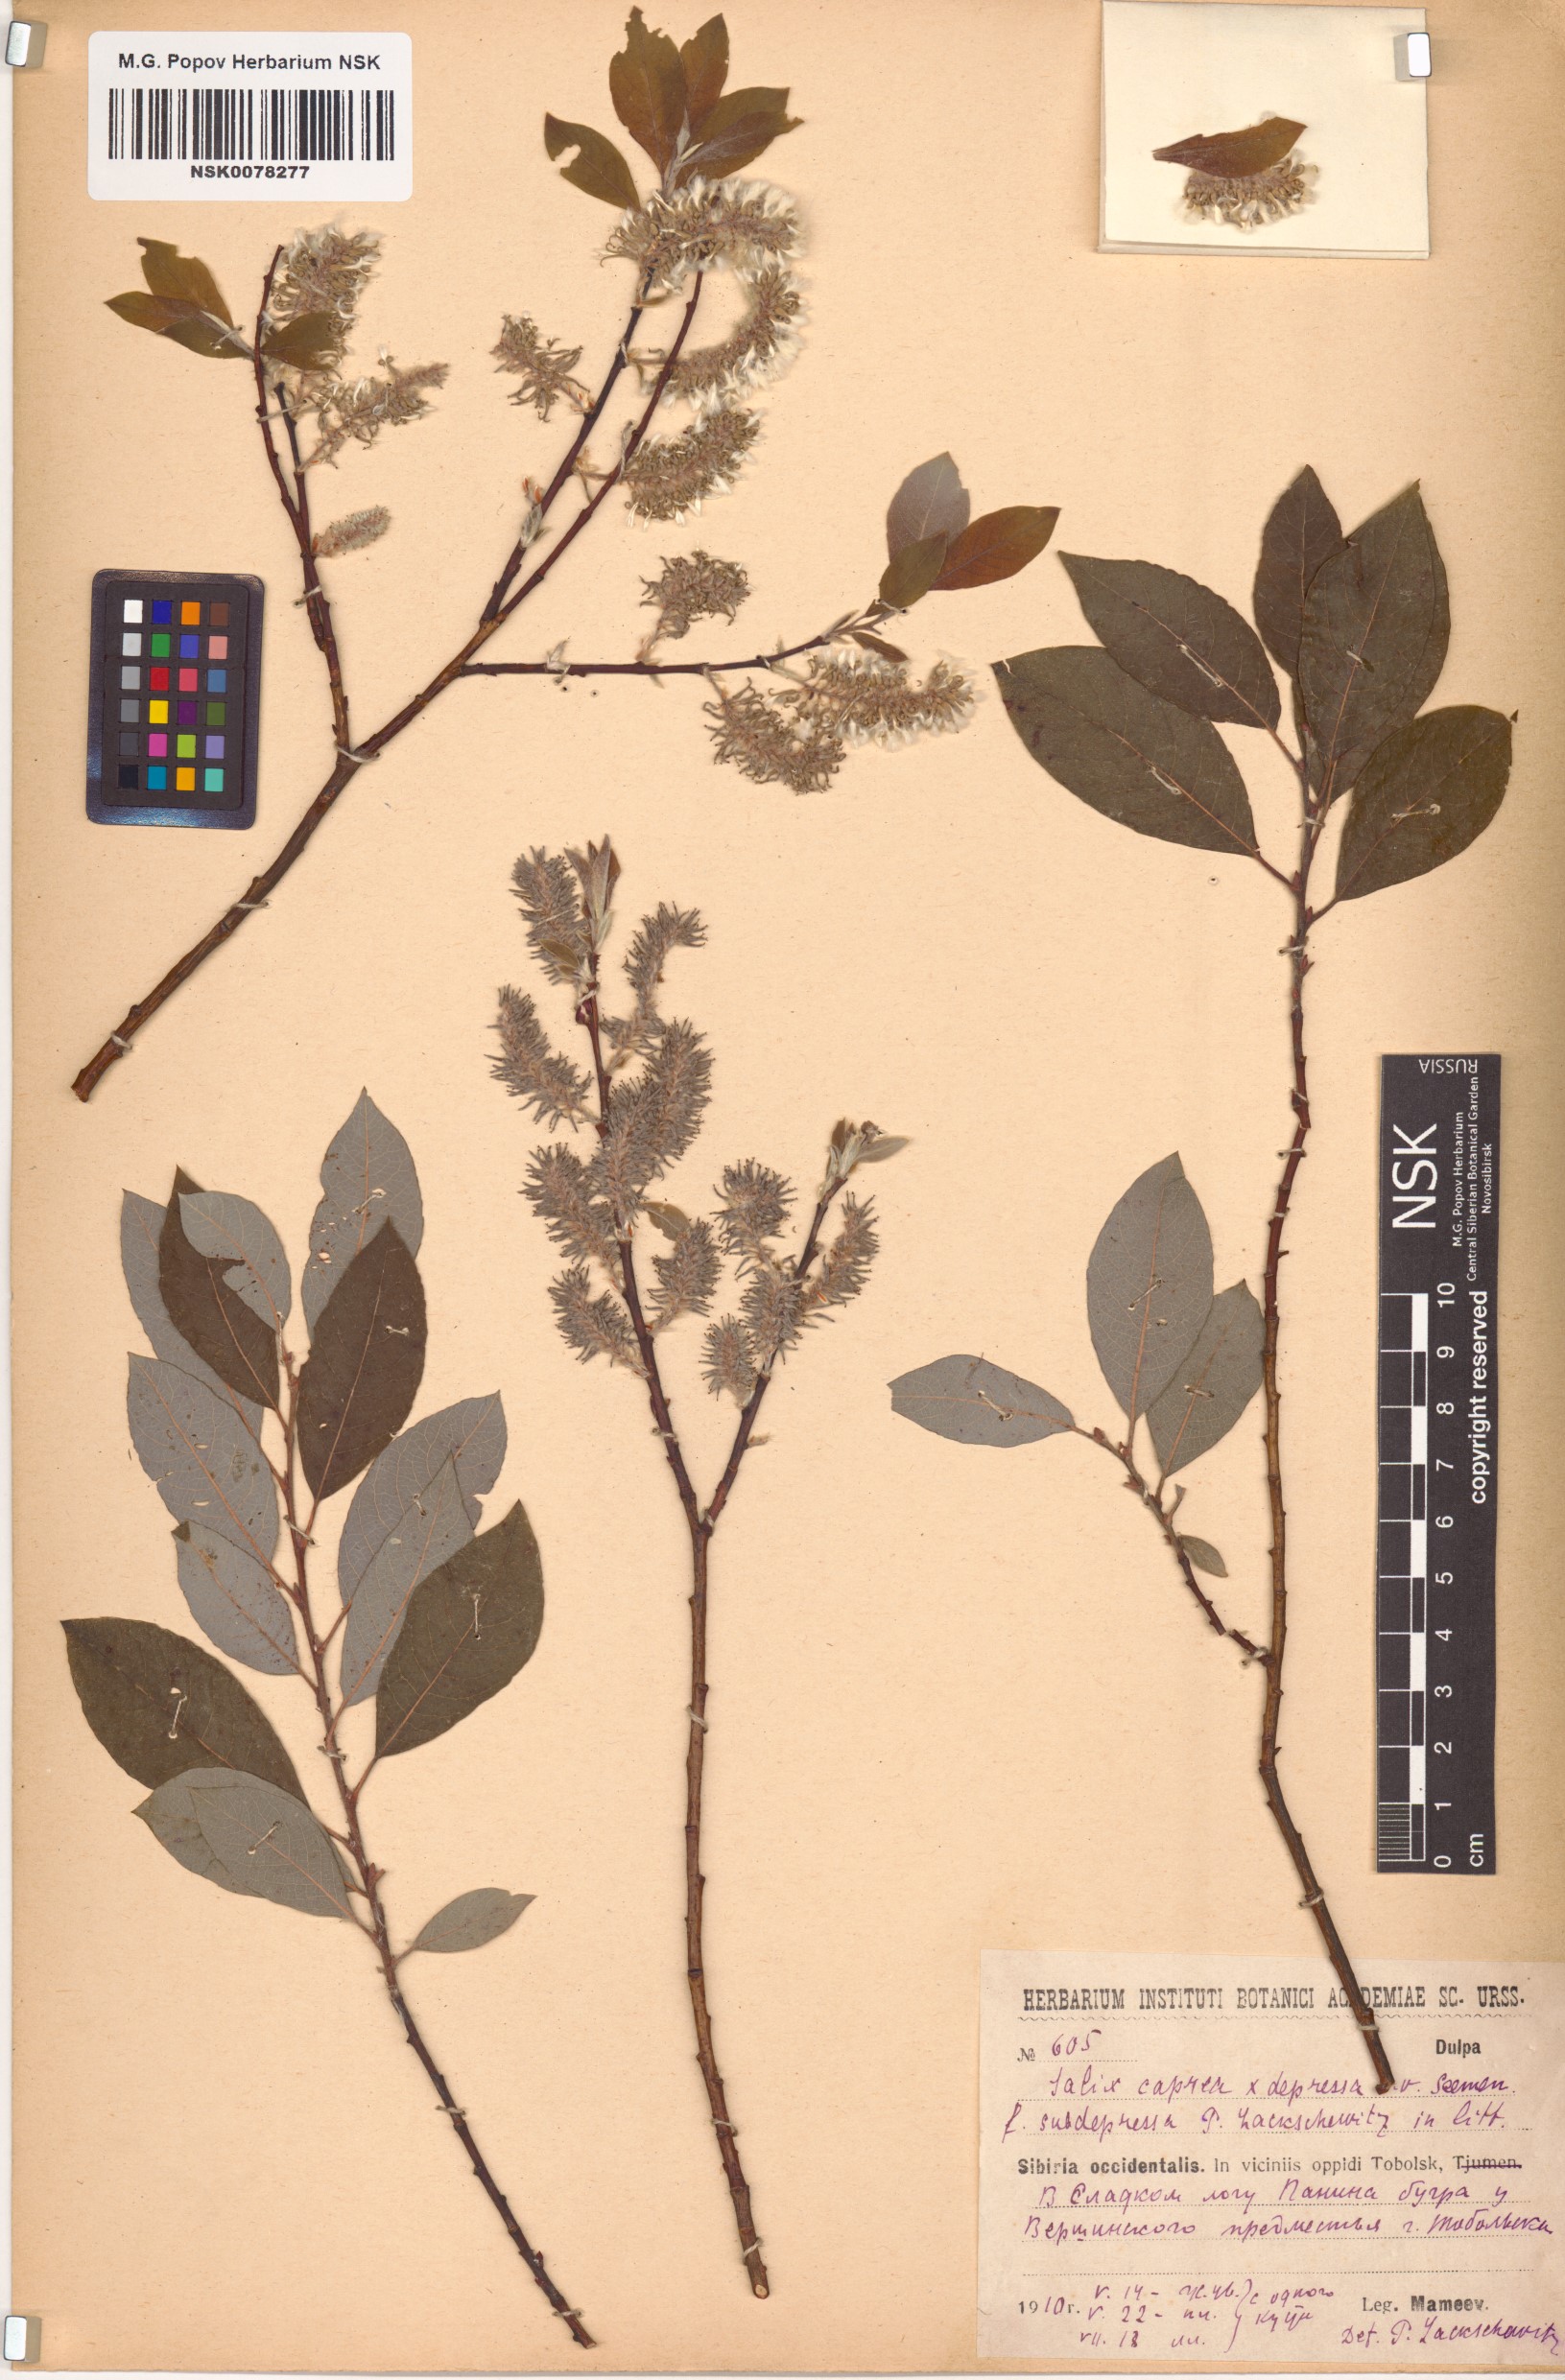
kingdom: Plantae
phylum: Tracheophyta
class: Magnoliopsida
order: Malpighiales
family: Salicaceae
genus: Salix
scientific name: Salix caprea
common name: Goat willow
